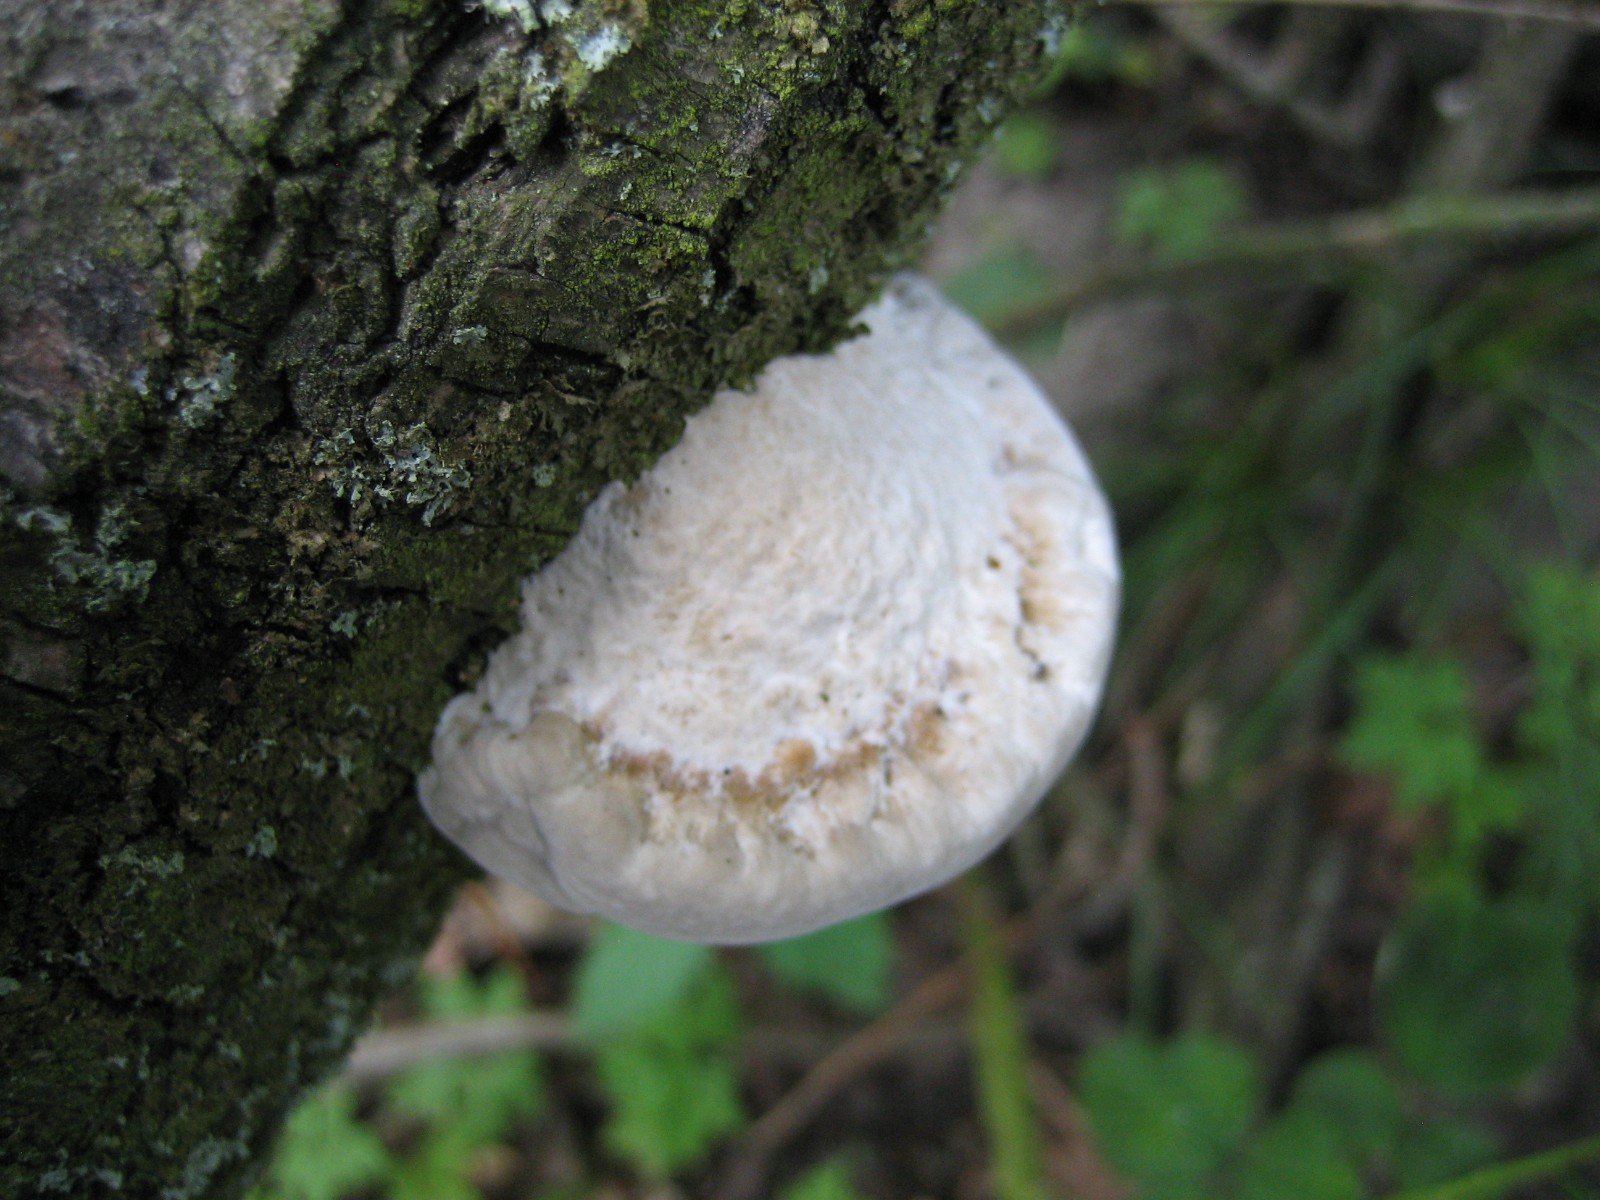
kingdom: Fungi
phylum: Basidiomycota
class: Agaricomycetes
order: Polyporales
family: Polyporaceae
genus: Daedaleopsis
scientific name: Daedaleopsis confragosa
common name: rødmende læderporesvamp
